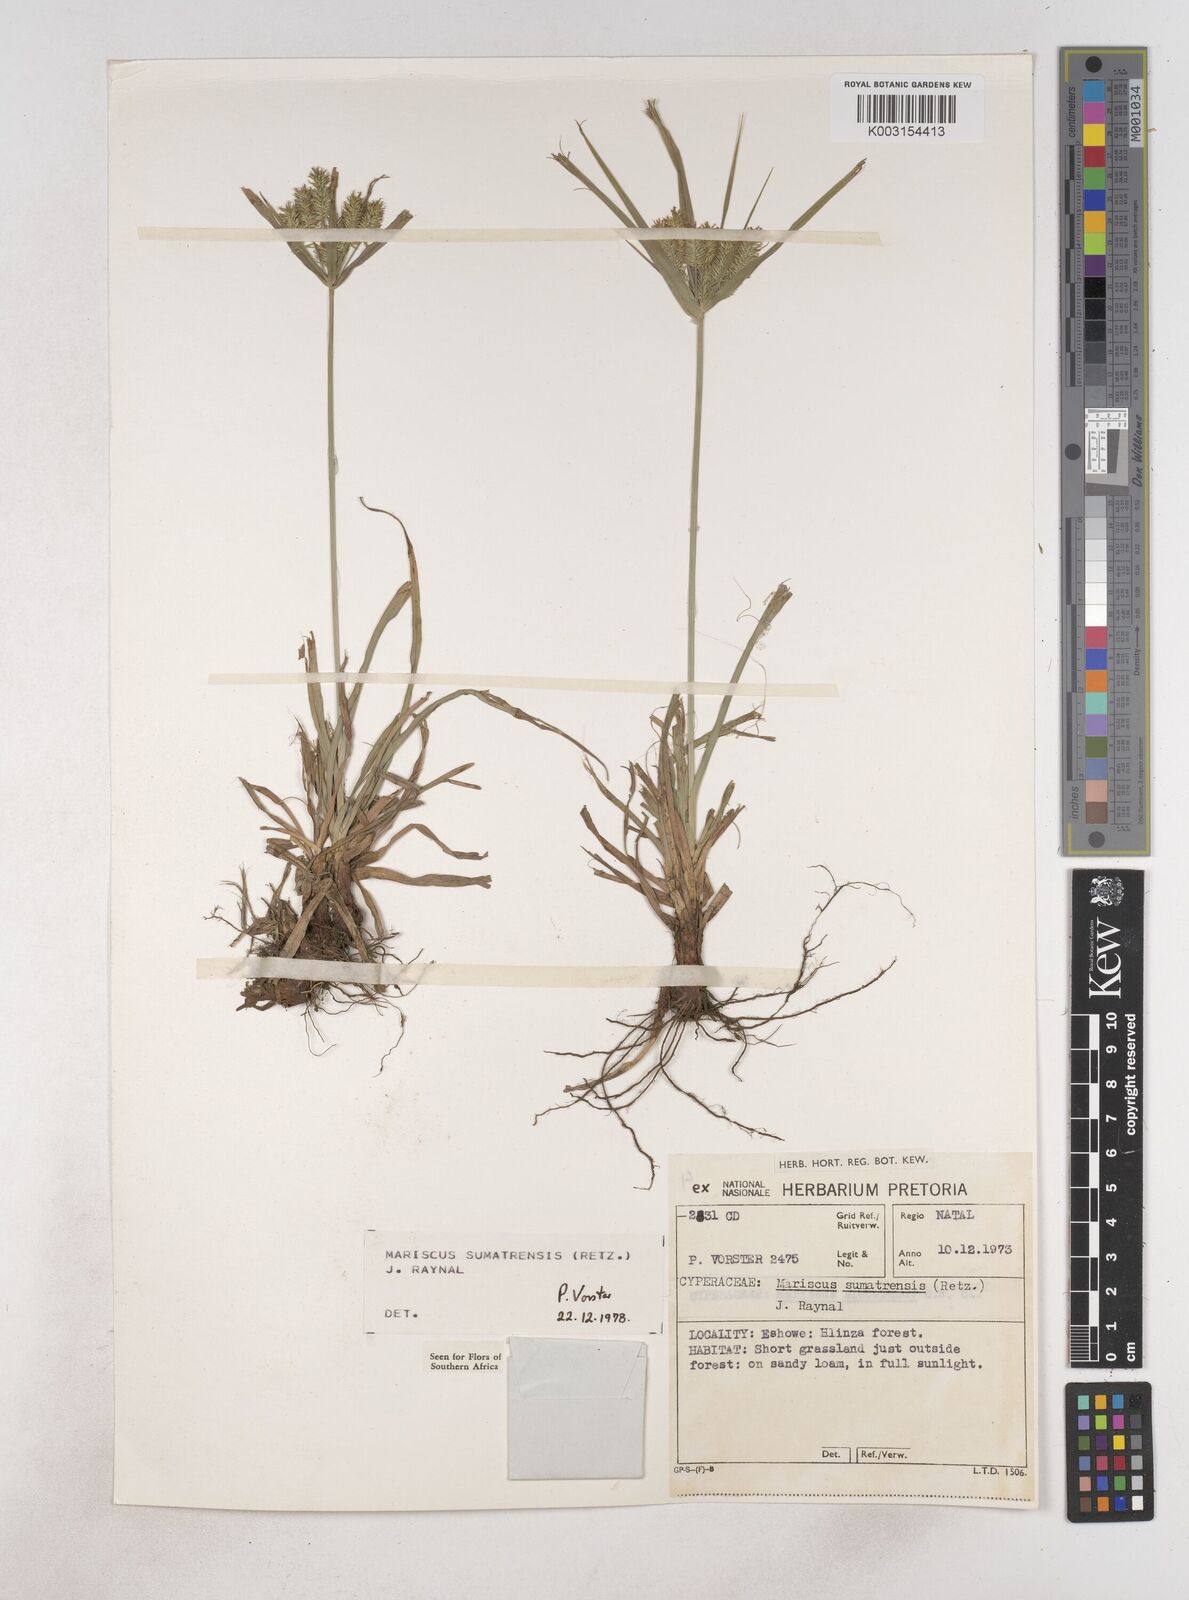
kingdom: Plantae
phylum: Tracheophyta
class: Liliopsida
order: Poales
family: Cyperaceae
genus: Cyperus
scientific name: Cyperus cyperoides
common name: Pacific island flat sedge
